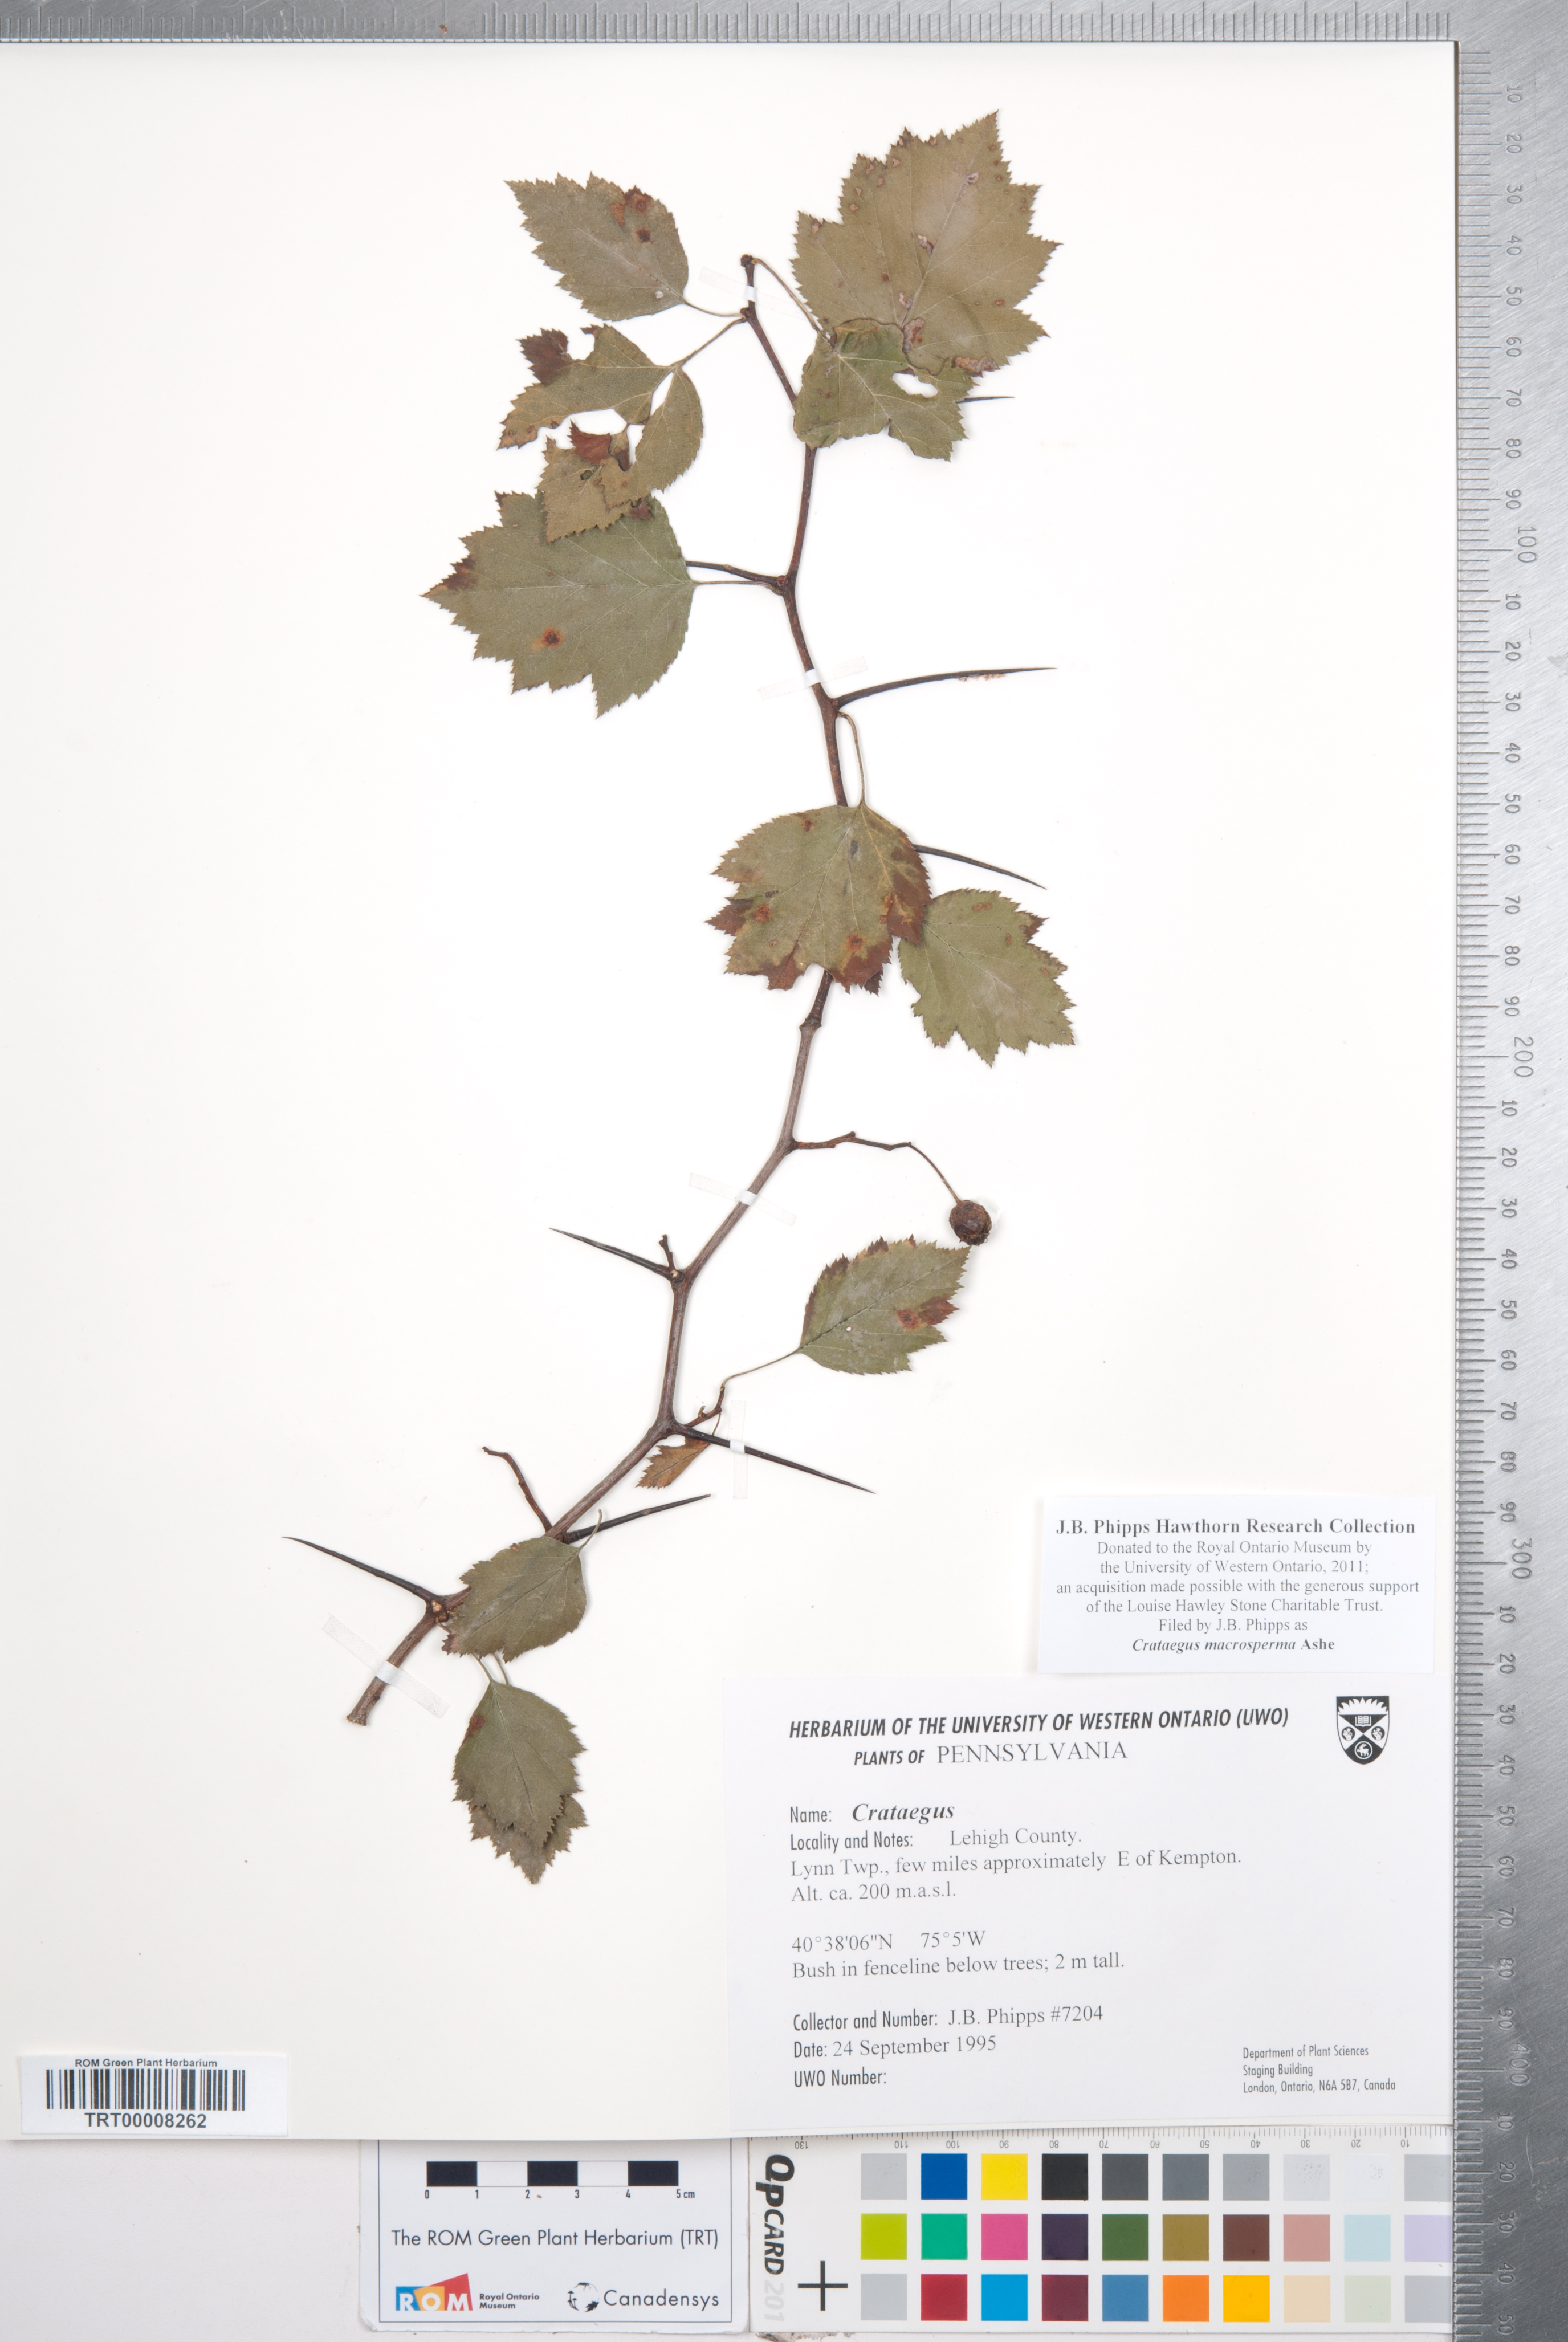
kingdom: Plantae
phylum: Tracheophyta
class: Magnoliopsida
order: Rosales
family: Rosaceae
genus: Crataegus
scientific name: Crataegus macrosperma
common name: Variable hawthorn
